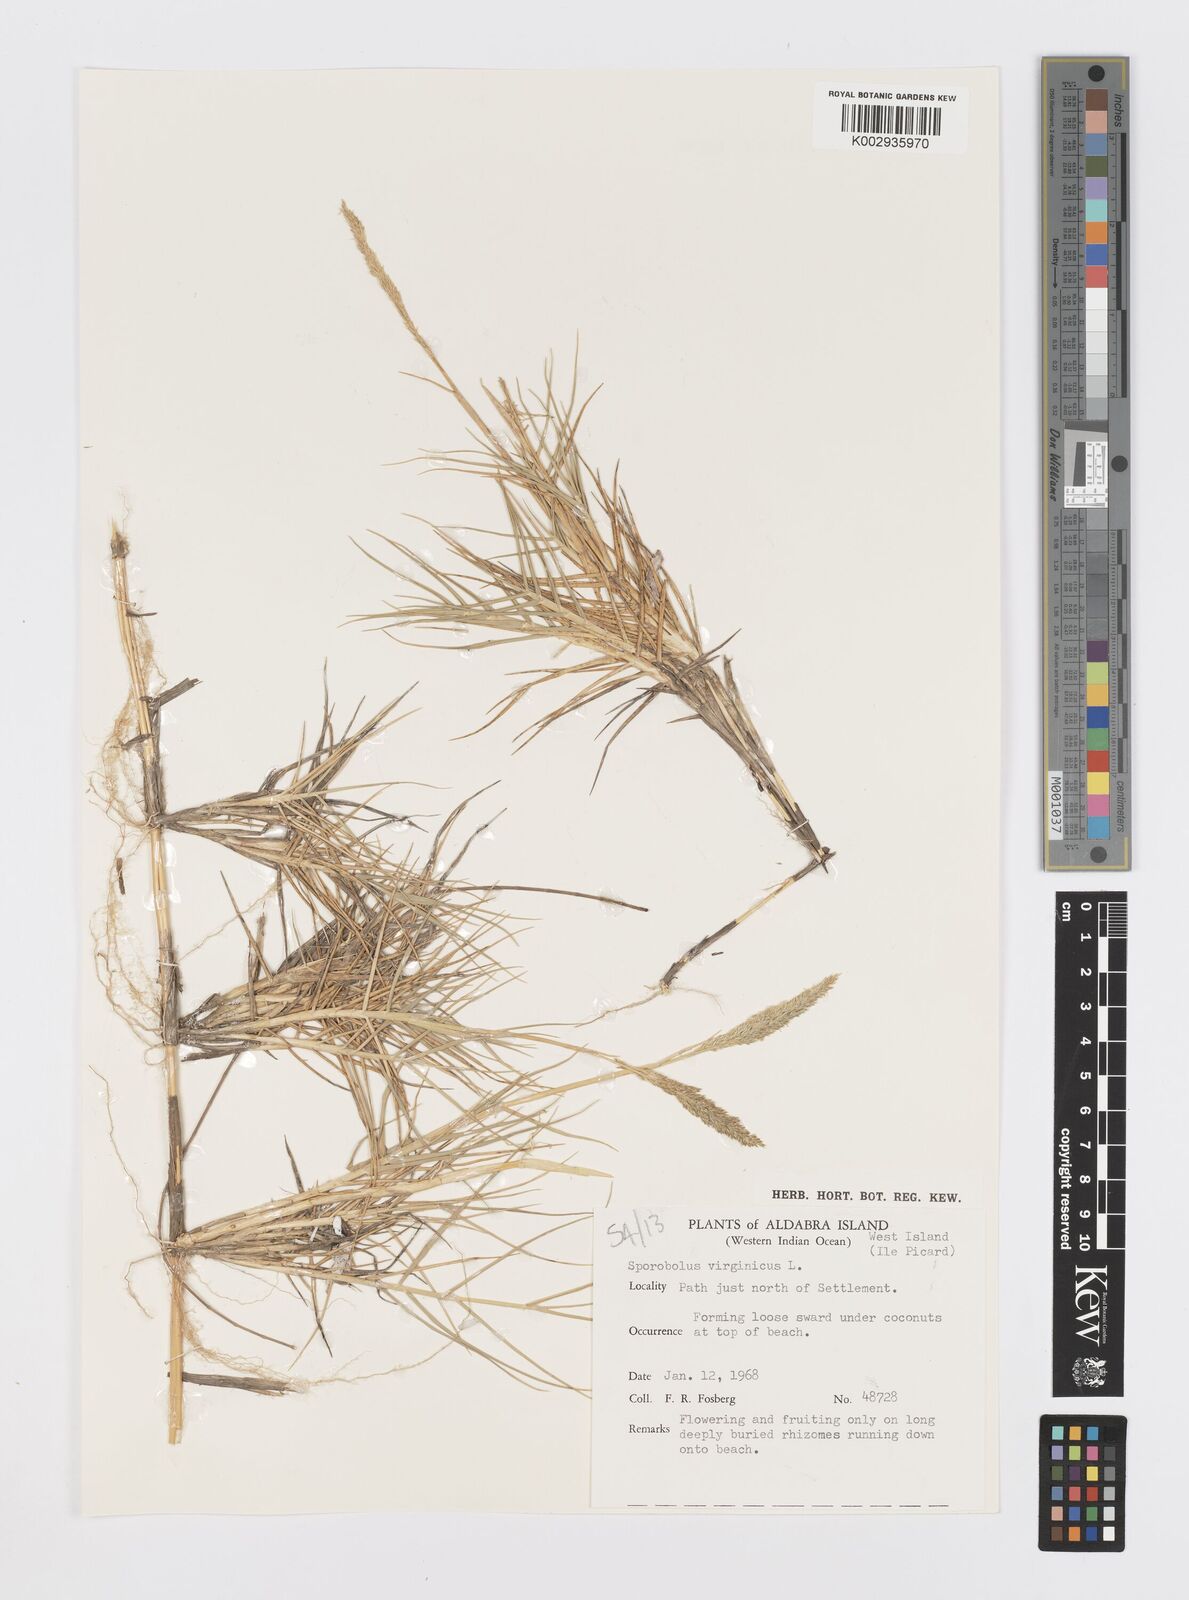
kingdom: Plantae
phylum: Tracheophyta
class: Liliopsida
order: Poales
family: Poaceae
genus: Sporobolus
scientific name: Sporobolus virginicus
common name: Beach dropseed
